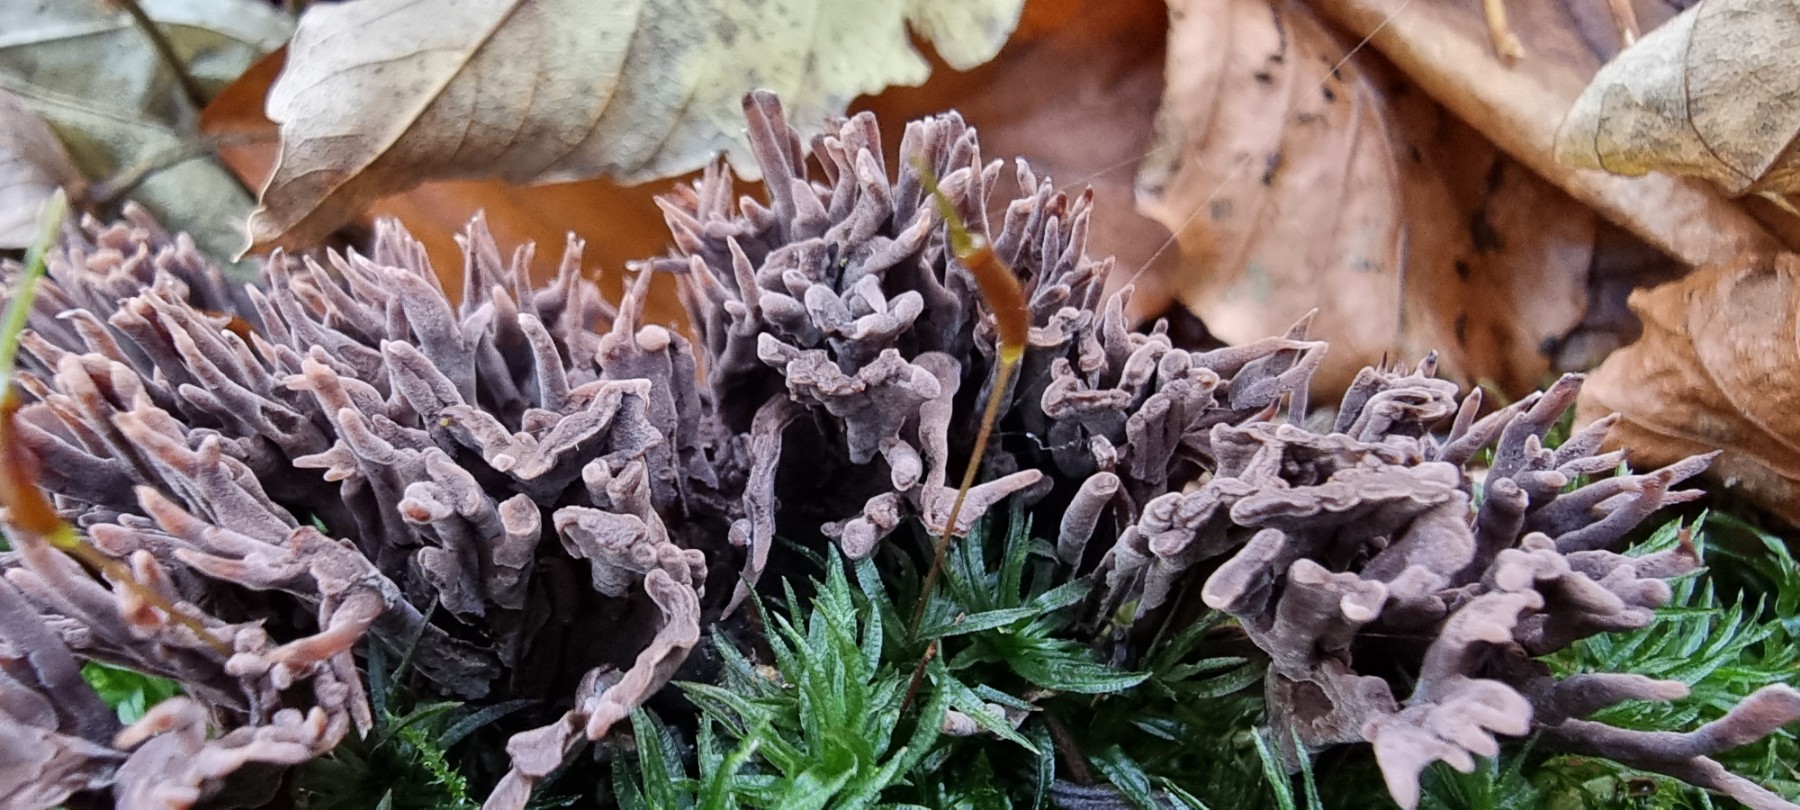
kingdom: Fungi
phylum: Basidiomycota
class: Agaricomycetes
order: Thelephorales
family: Thelephoraceae
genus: Thelephora
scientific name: Thelephora palmata
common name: grenet frynsesvamp
